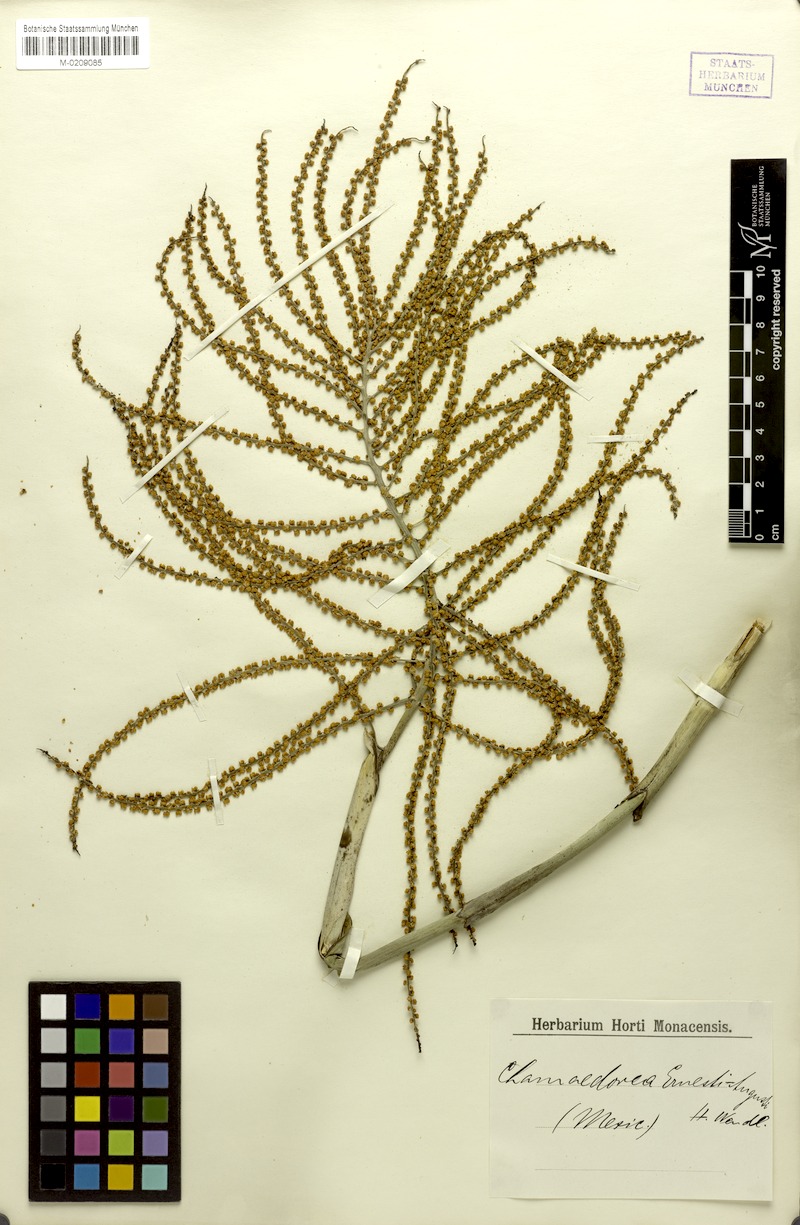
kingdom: Plantae
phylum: Tracheophyta
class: Liliopsida
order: Arecales
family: Arecaceae
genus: Chamaedorea
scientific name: Chamaedorea ernesti-augusti
